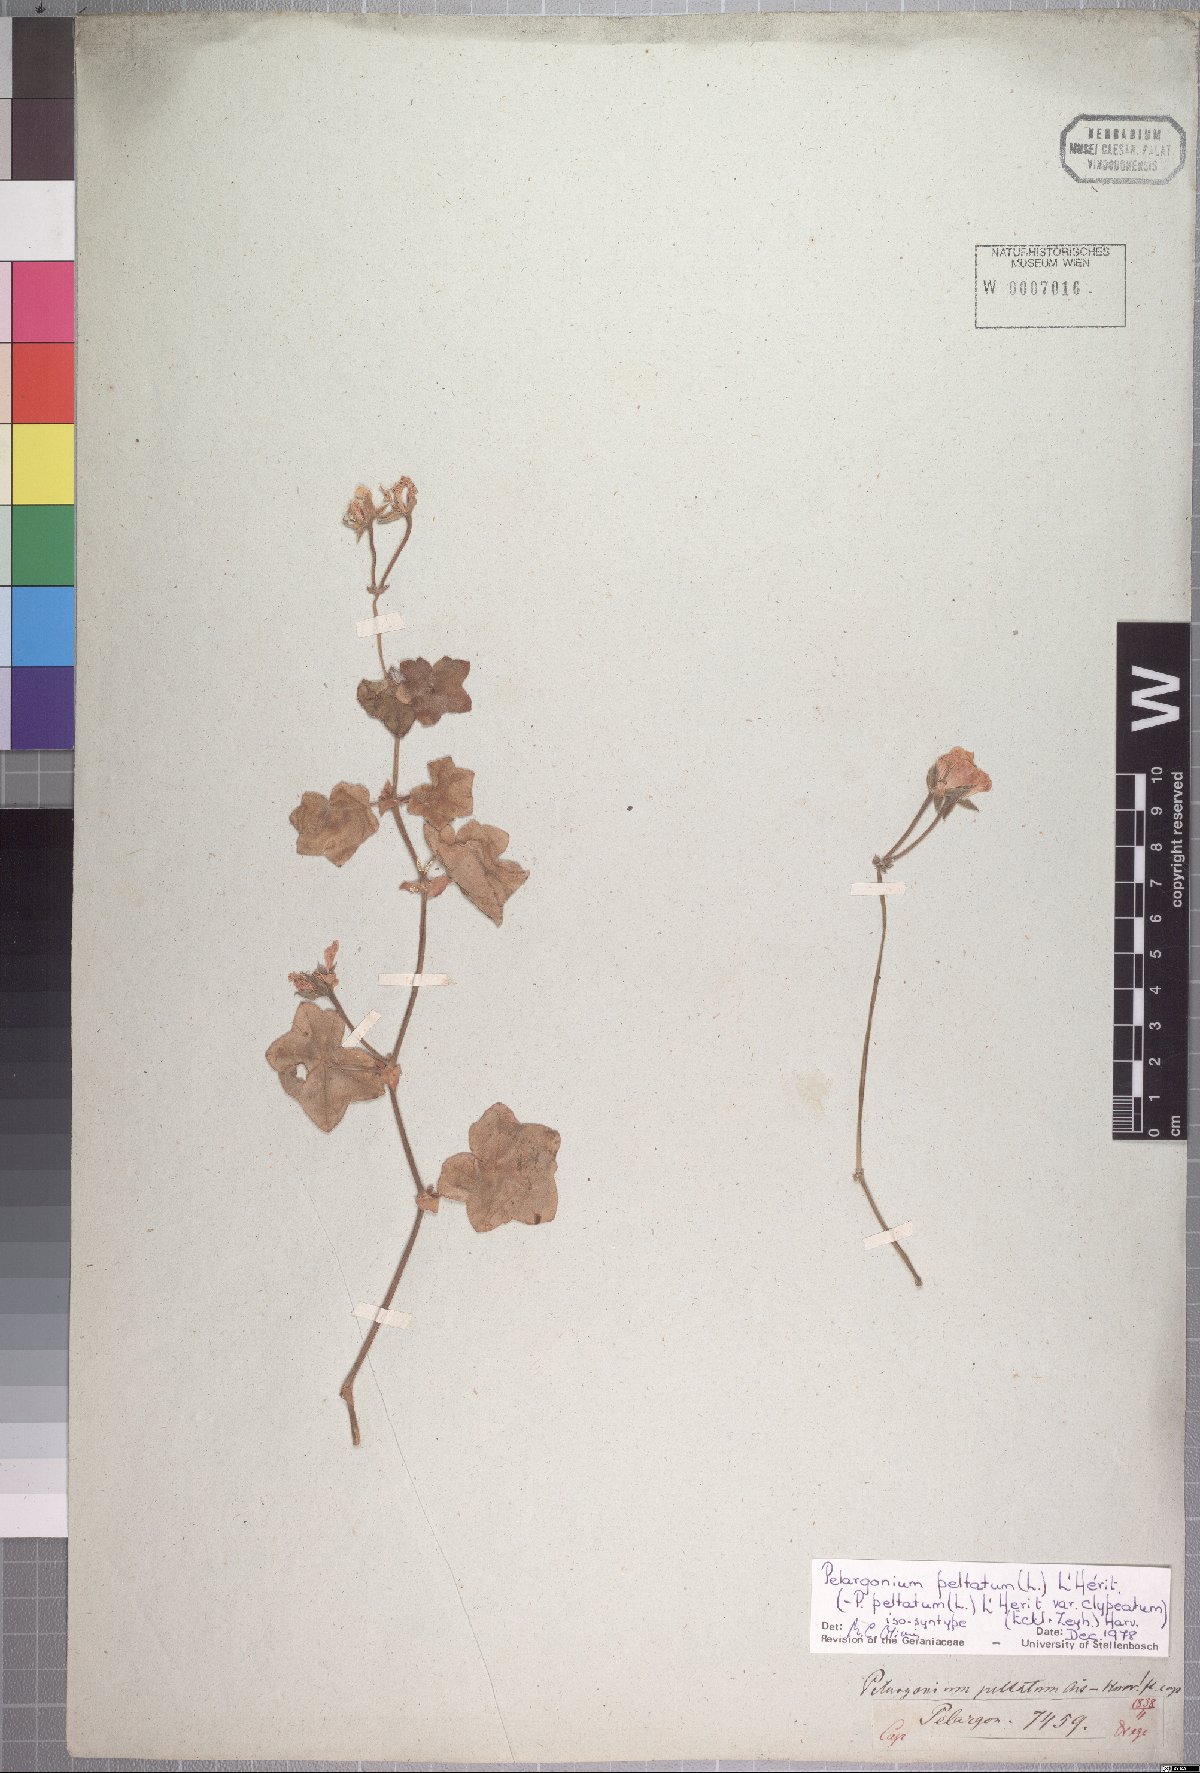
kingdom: Plantae
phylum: Tracheophyta
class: Magnoliopsida
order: Geraniales
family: Geraniaceae
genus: Pelargonium
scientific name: Pelargonium peltatum
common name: Ivyleaf geranium
